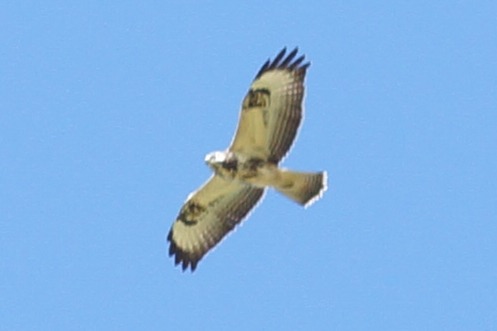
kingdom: Animalia
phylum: Chordata
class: Aves
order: Accipitriformes
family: Accipitridae
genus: Buteo
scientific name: Buteo buteo
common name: Musvåge
